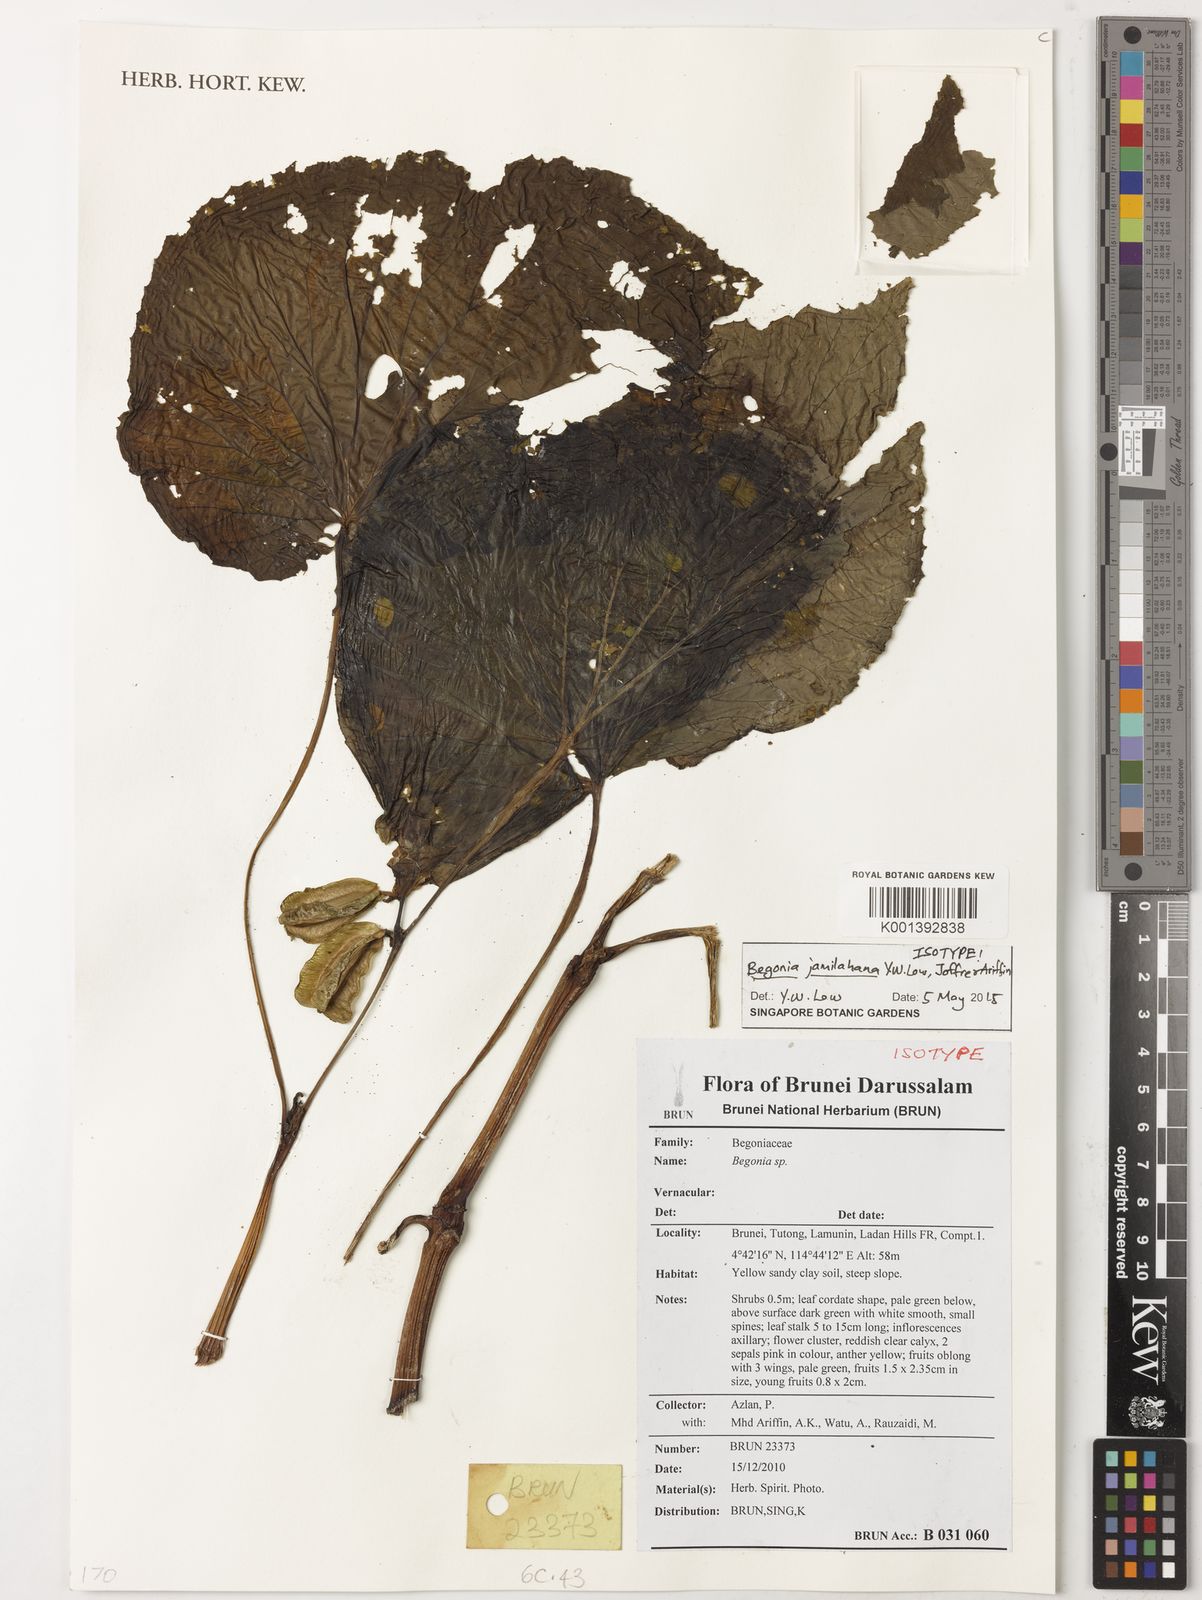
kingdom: Plantae
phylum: Tracheophyta
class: Magnoliopsida
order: Cucurbitales
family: Begoniaceae
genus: Begonia
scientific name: Begonia jamilahana
